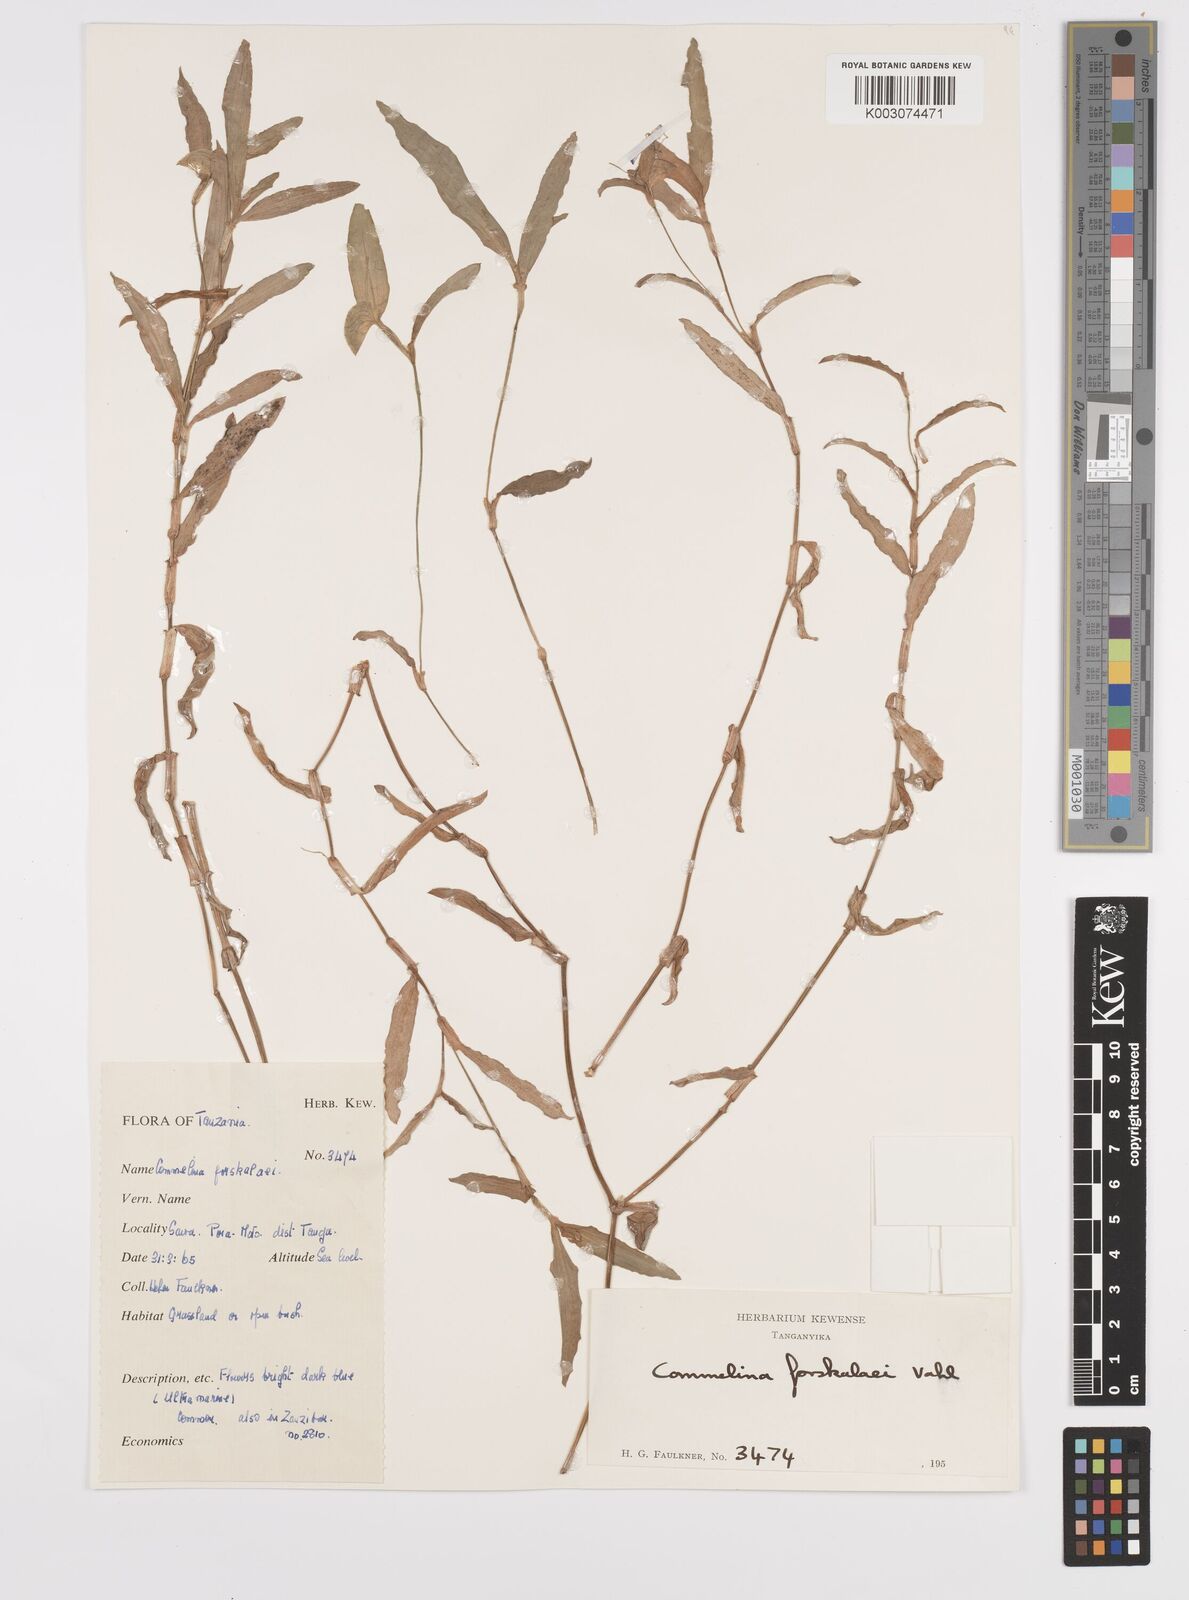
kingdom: Plantae
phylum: Tracheophyta
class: Liliopsida
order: Commelinales
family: Commelinaceae
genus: Commelina
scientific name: Commelina forskaolii
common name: Rat's ear
